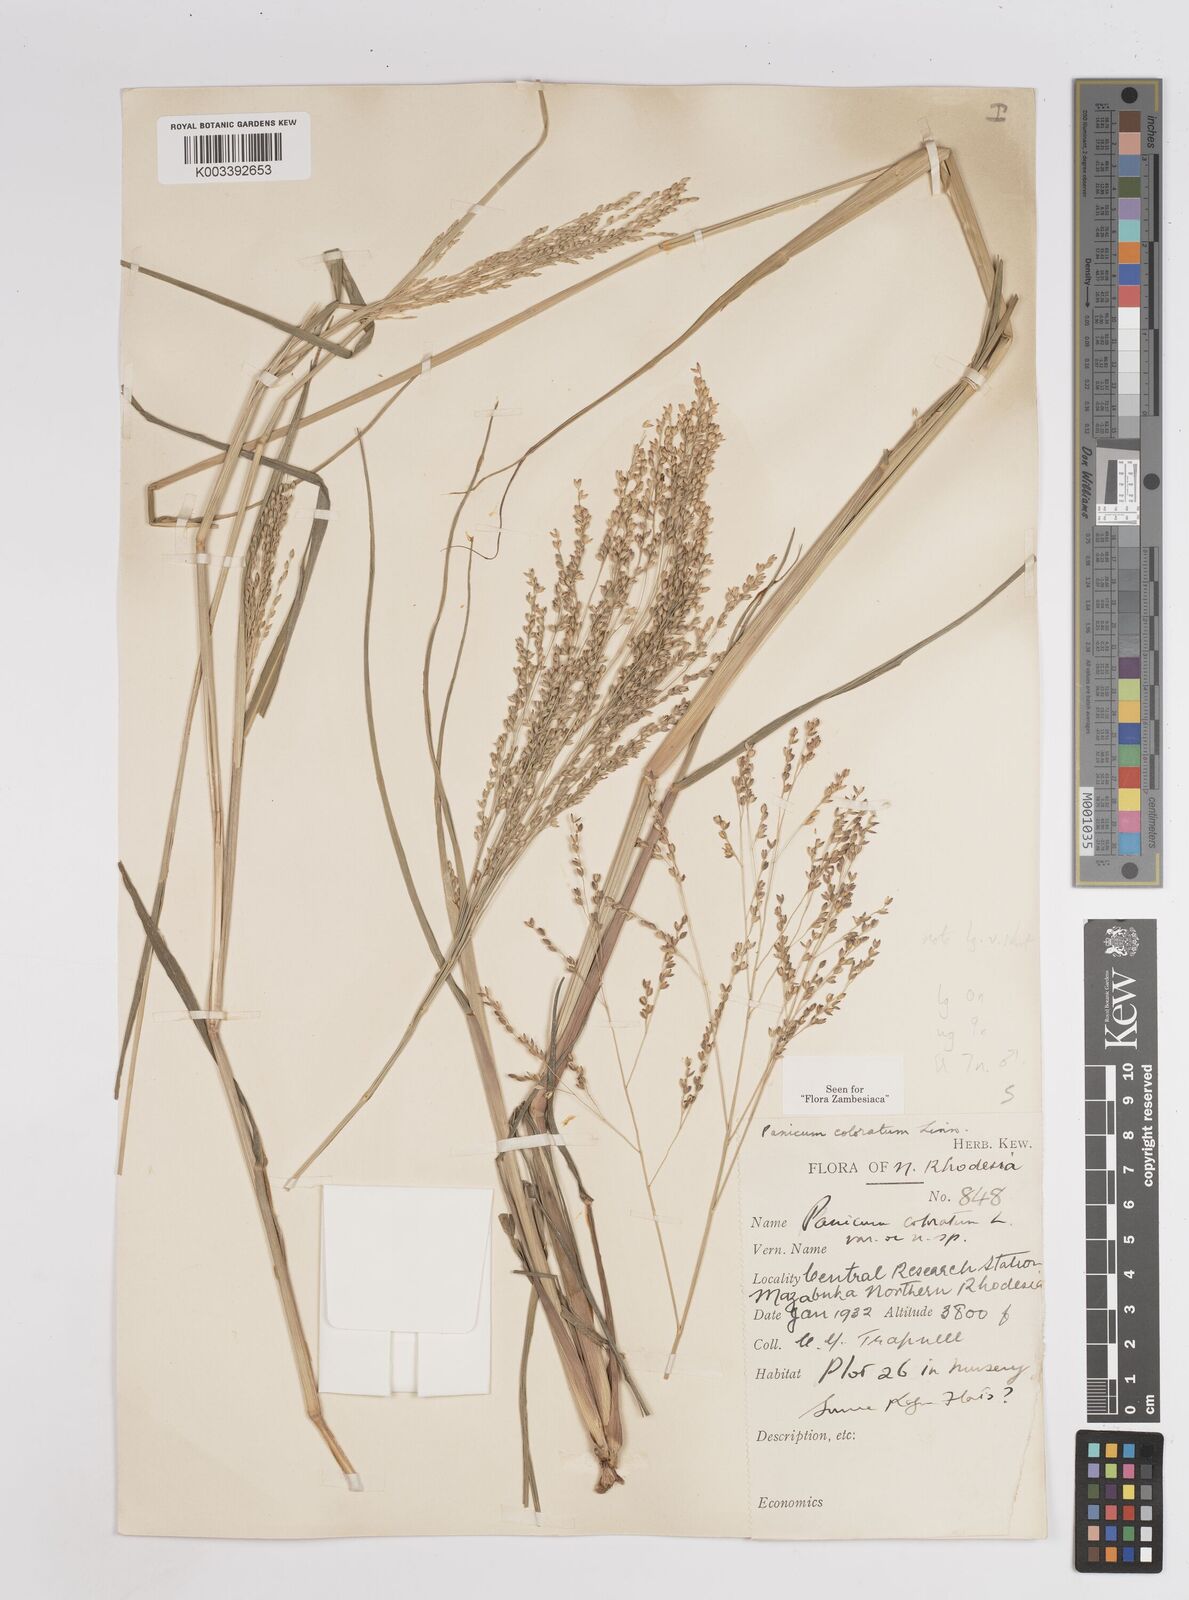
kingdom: Plantae
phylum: Tracheophyta
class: Liliopsida
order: Poales
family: Poaceae
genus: Panicum
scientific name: Panicum
